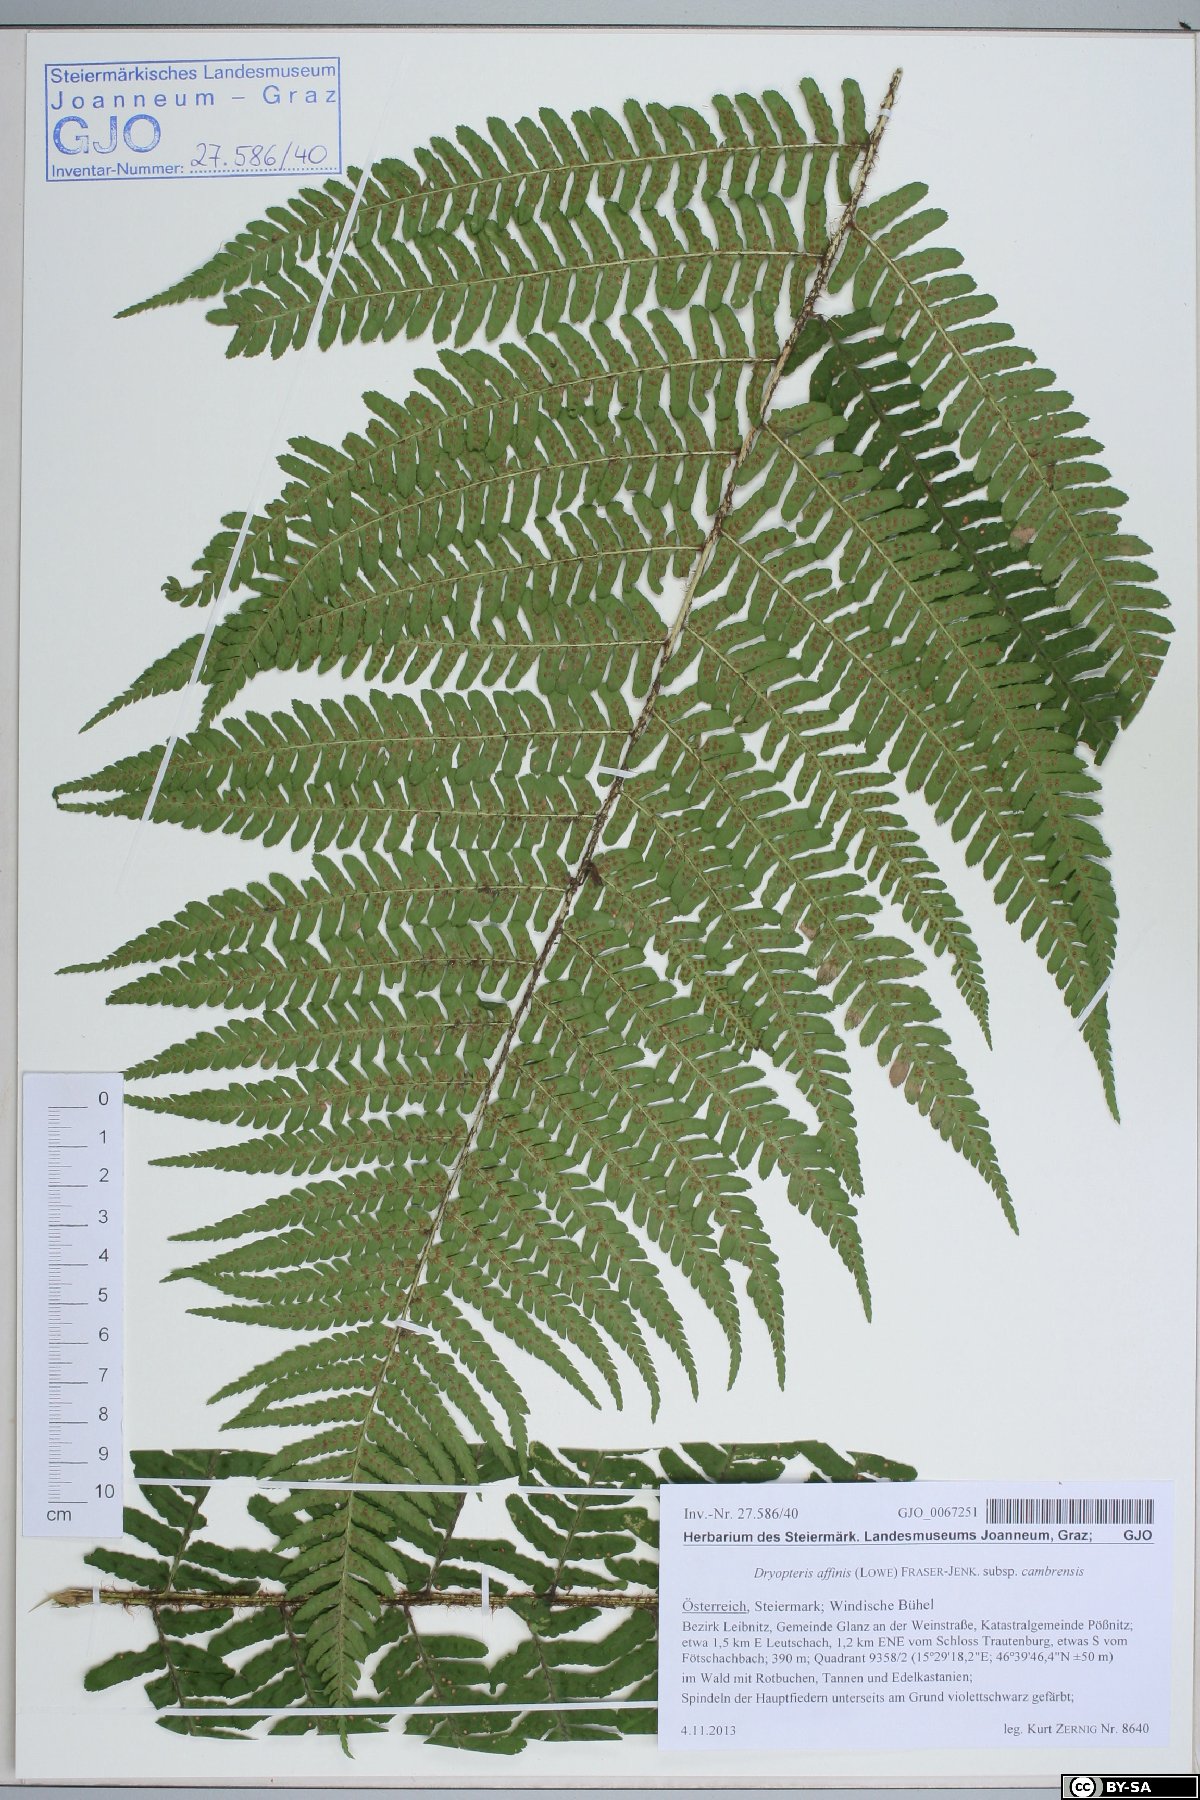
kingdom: Plantae
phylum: Tracheophyta
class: Polypodiopsida
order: Polypodiales
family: Dryopteridaceae
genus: Dryopteris
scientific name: Dryopteris cambrensis
